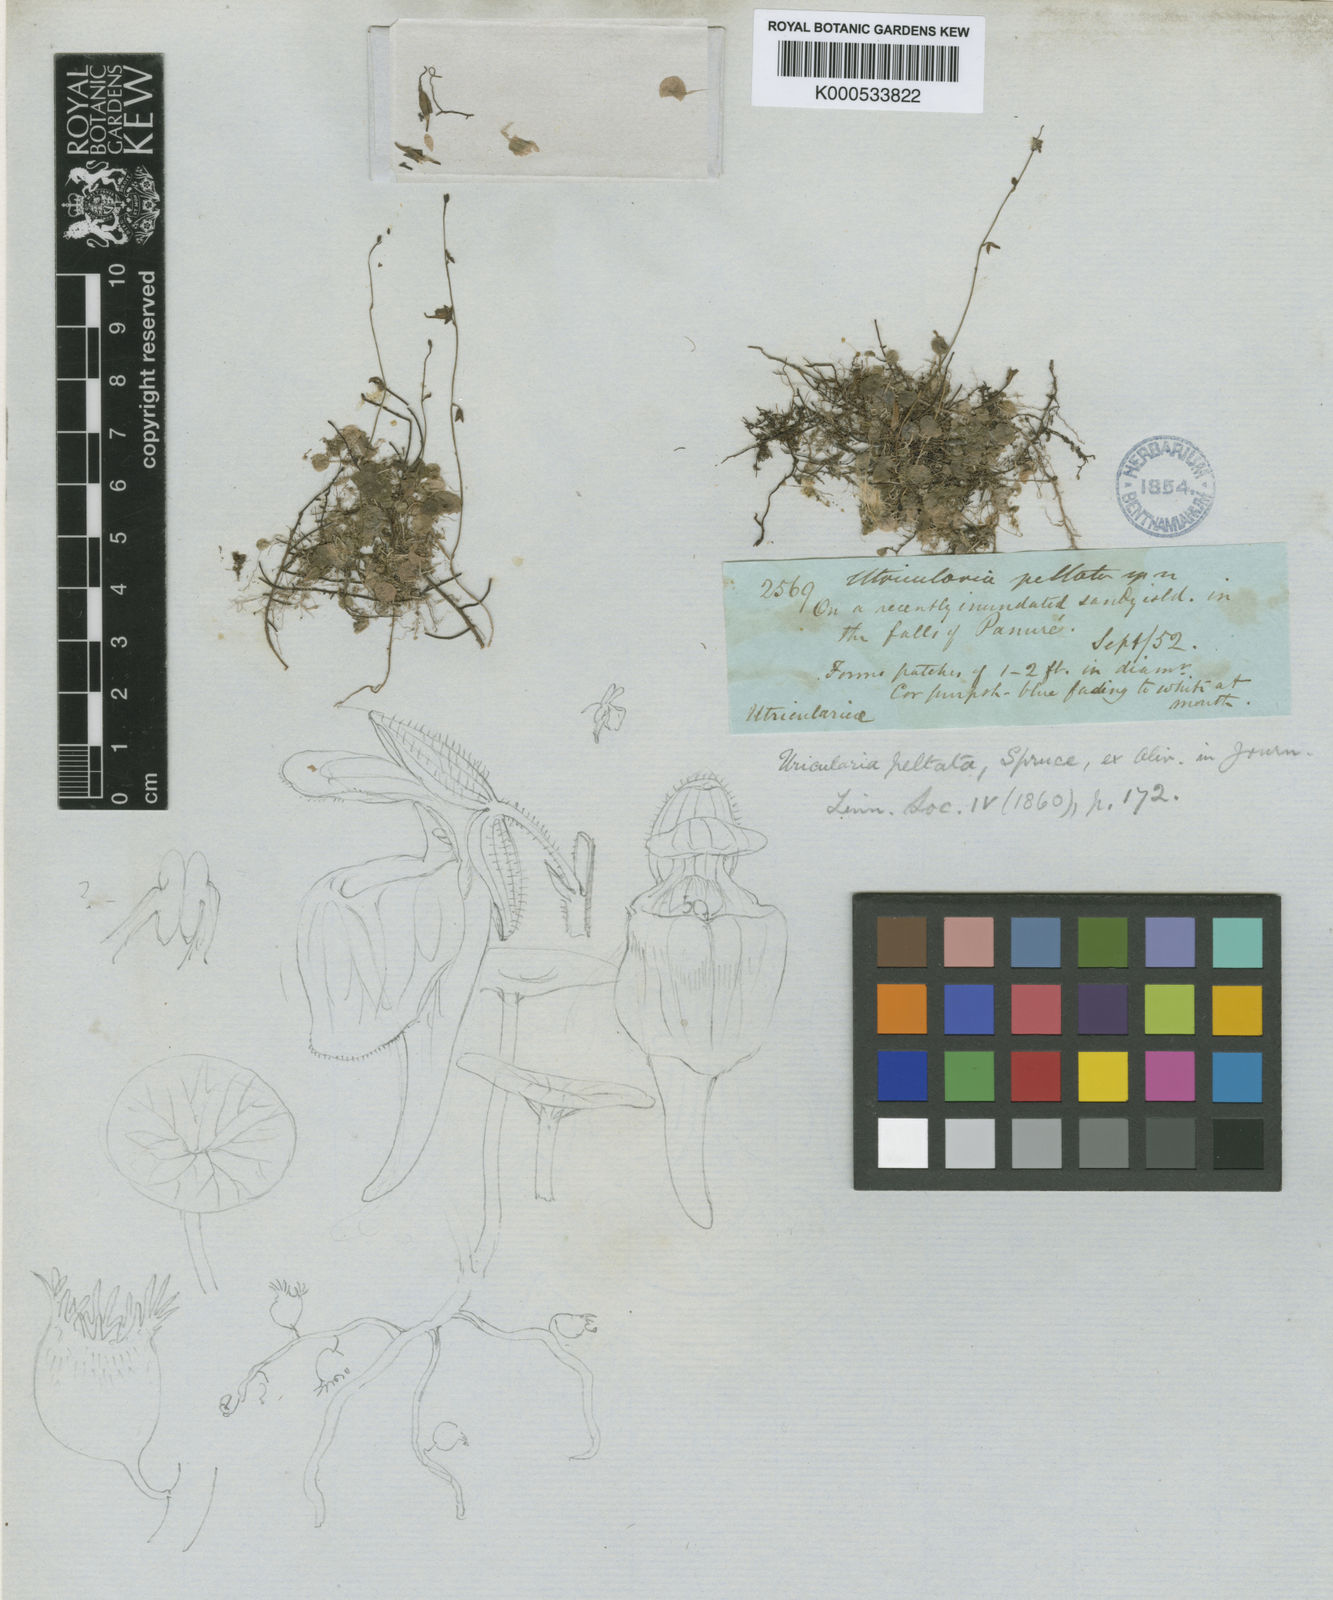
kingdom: Plantae
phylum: Tracheophyta
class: Magnoliopsida
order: Lamiales
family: Lentibulariaceae
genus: Utricularia
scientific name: Utricularia pubescens
